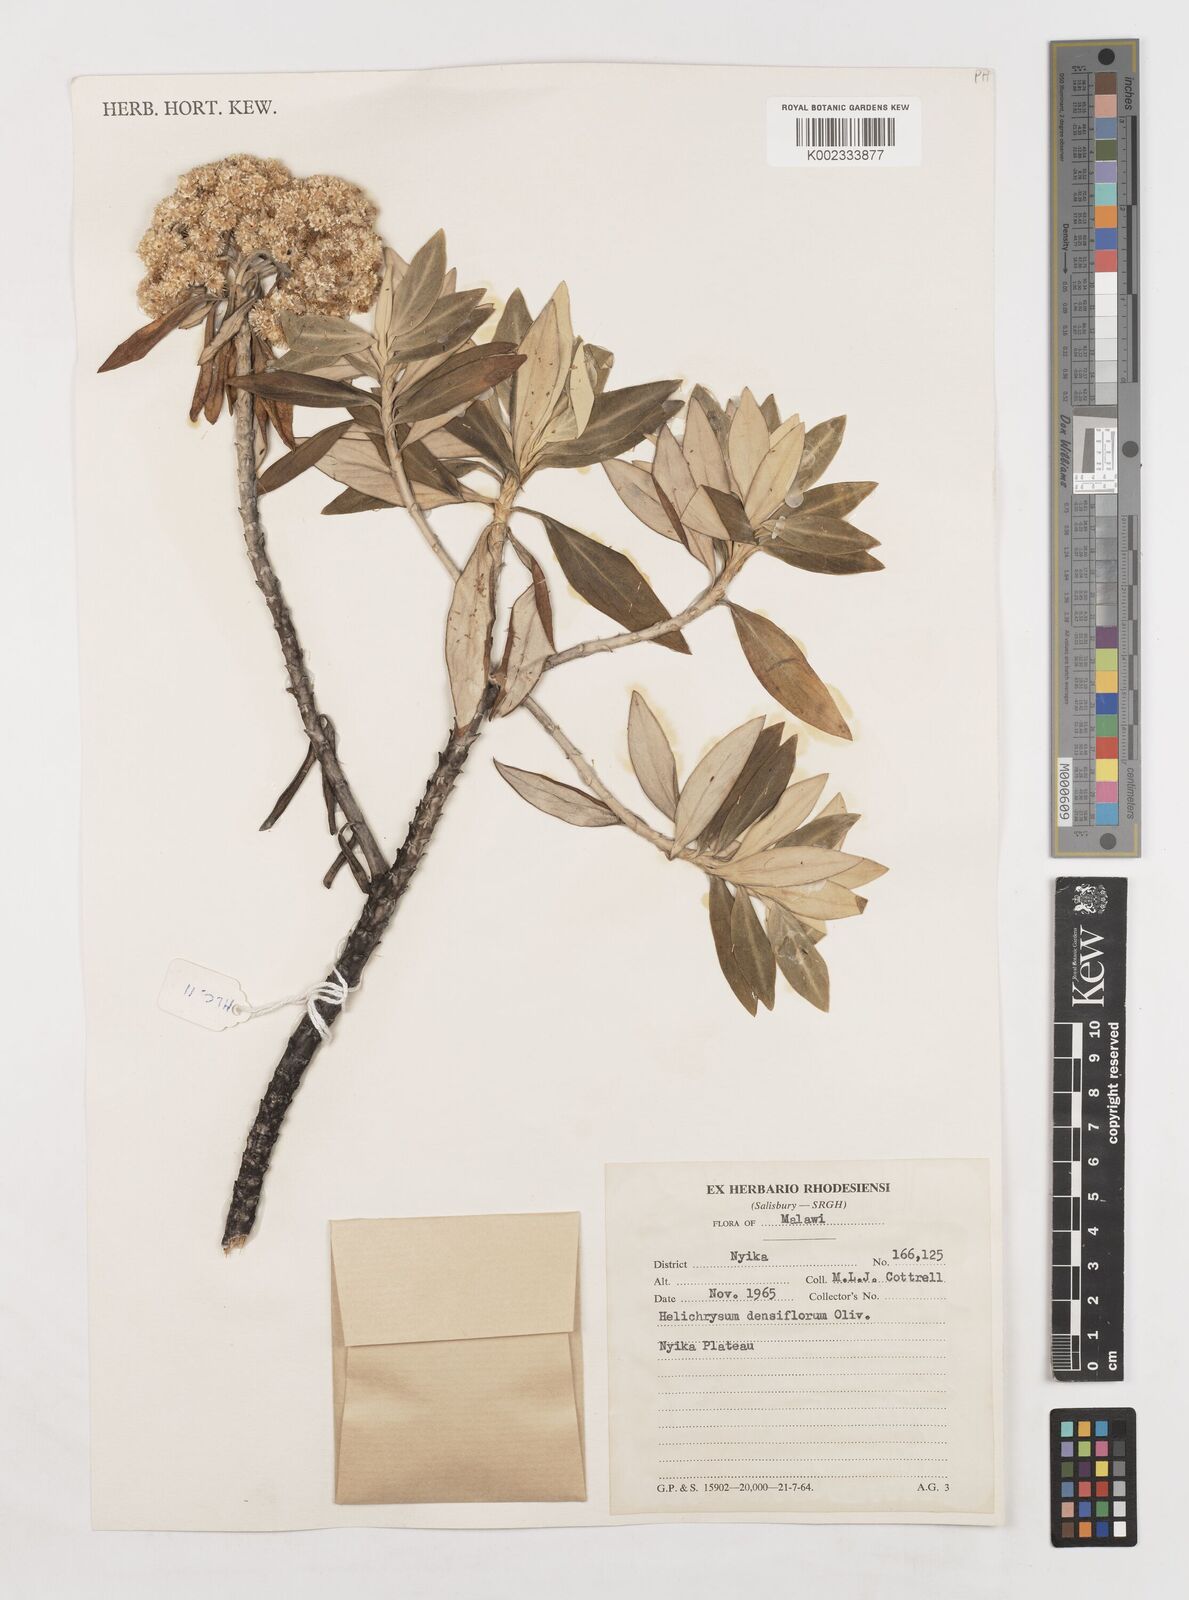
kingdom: Plantae
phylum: Tracheophyta
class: Magnoliopsida
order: Asterales
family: Asteraceae
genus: Helichrysum
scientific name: Helichrysum densiflorum
